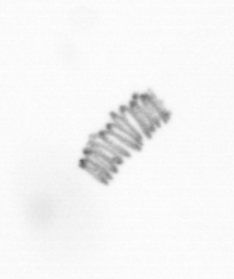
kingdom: Chromista
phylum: Ochrophyta
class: Bacillariophyceae
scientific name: Bacillariophyceae
